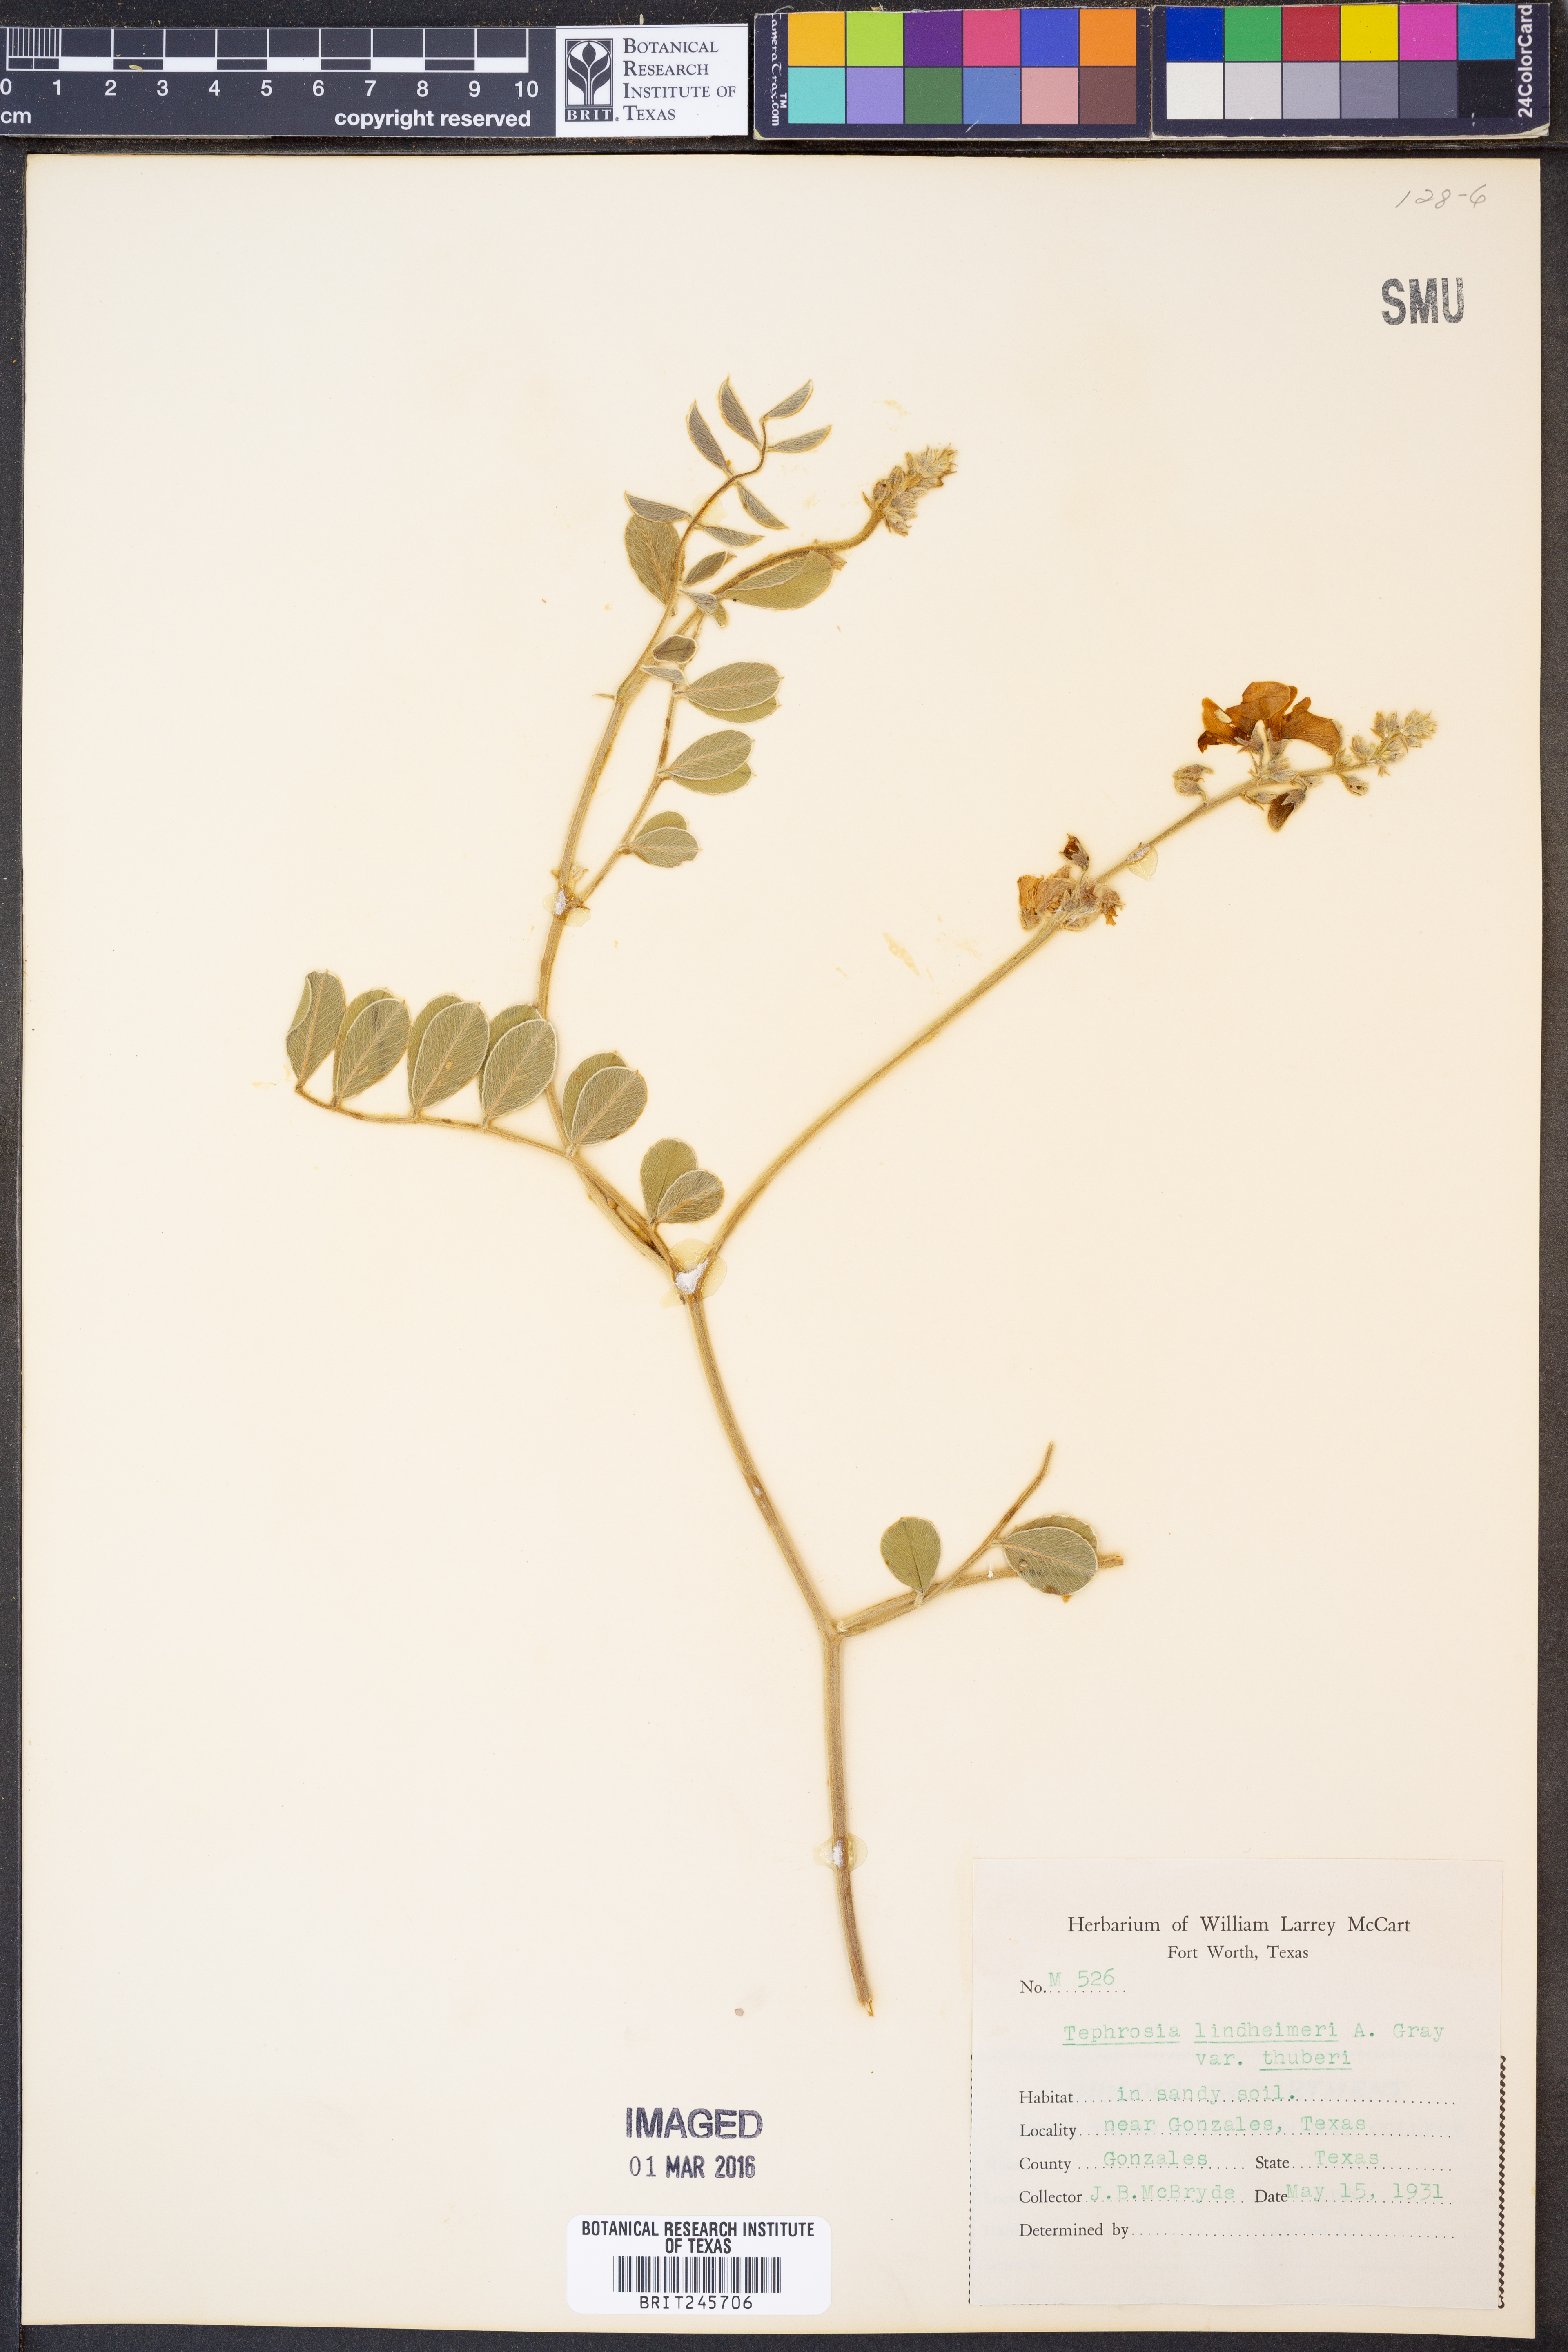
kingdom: Plantae
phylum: Tracheophyta
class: Magnoliopsida
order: Fabales
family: Fabaceae
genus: Tephrosia
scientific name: Tephrosia lindheimeri
